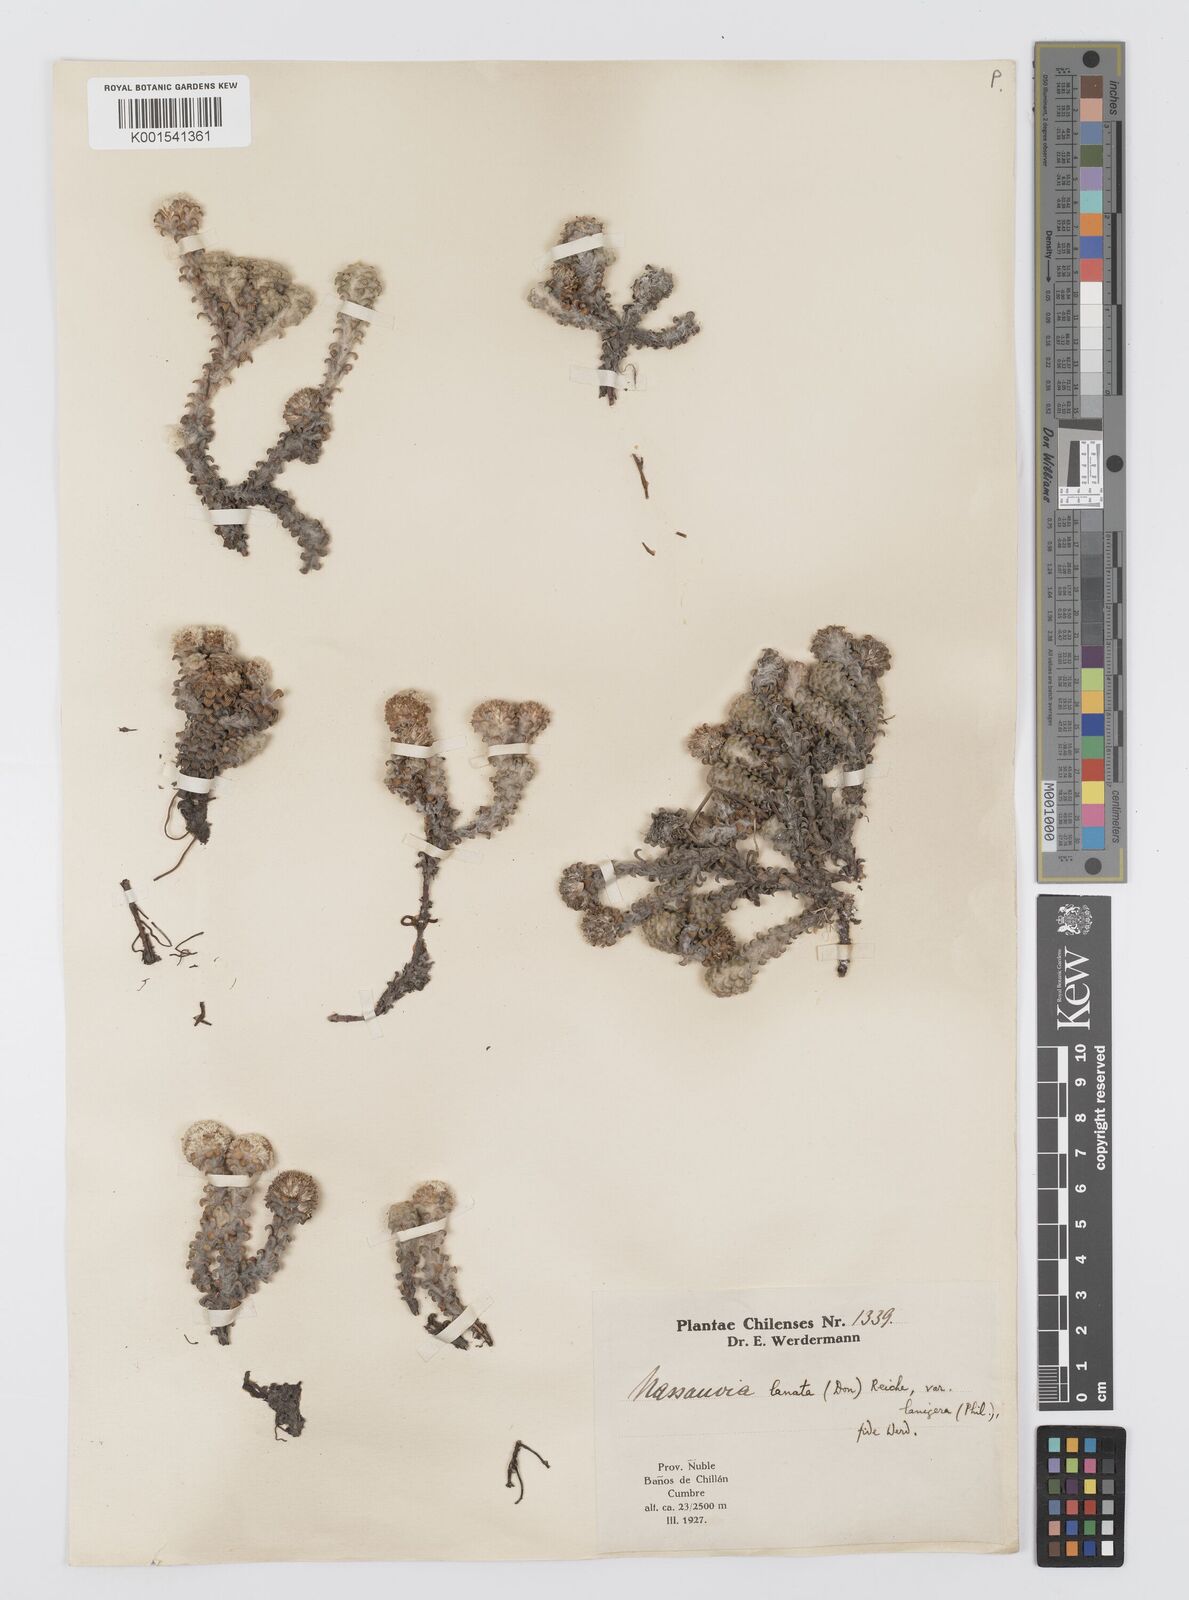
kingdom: Plantae
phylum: Tracheophyta
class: Magnoliopsida
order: Asterales
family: Asteraceae
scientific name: Asteraceae
